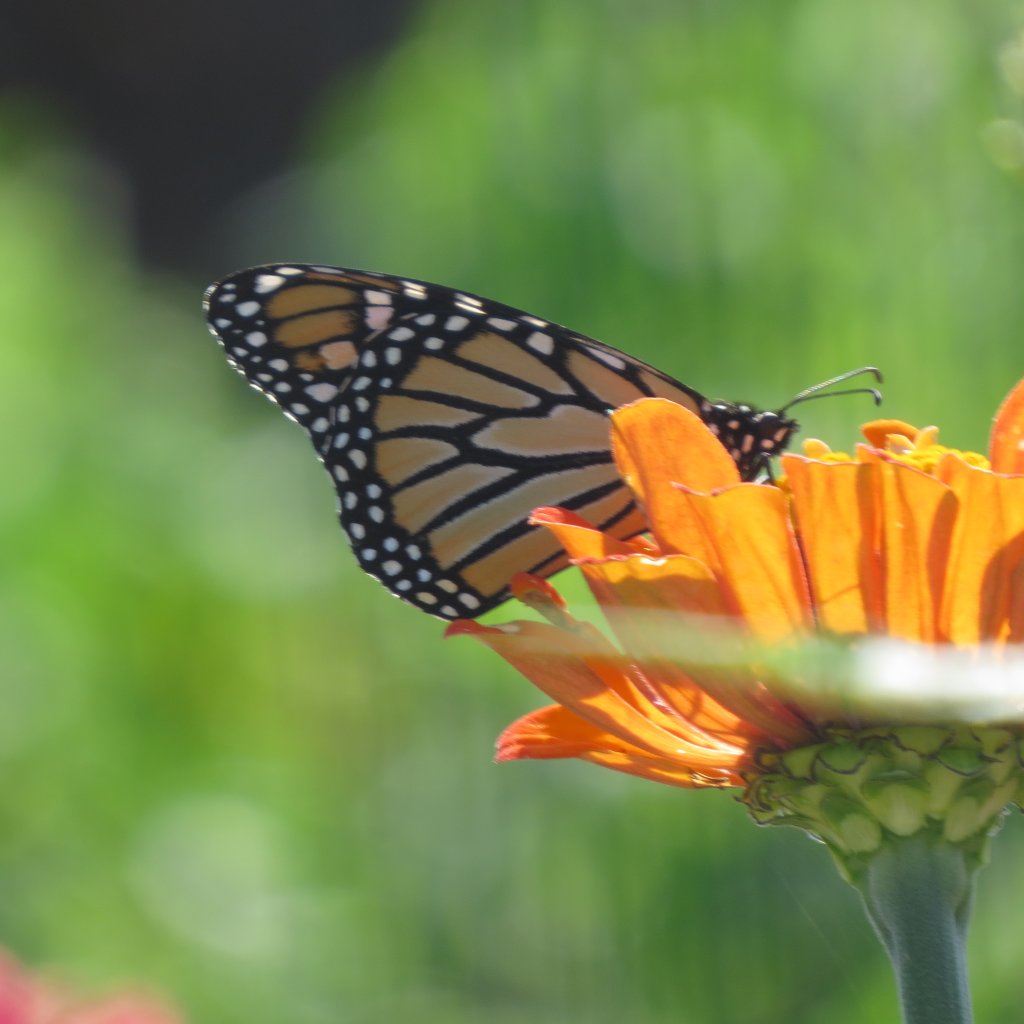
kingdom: Animalia
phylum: Arthropoda
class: Insecta
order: Lepidoptera
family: Nymphalidae
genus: Danaus
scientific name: Danaus plexippus
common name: Monarch
